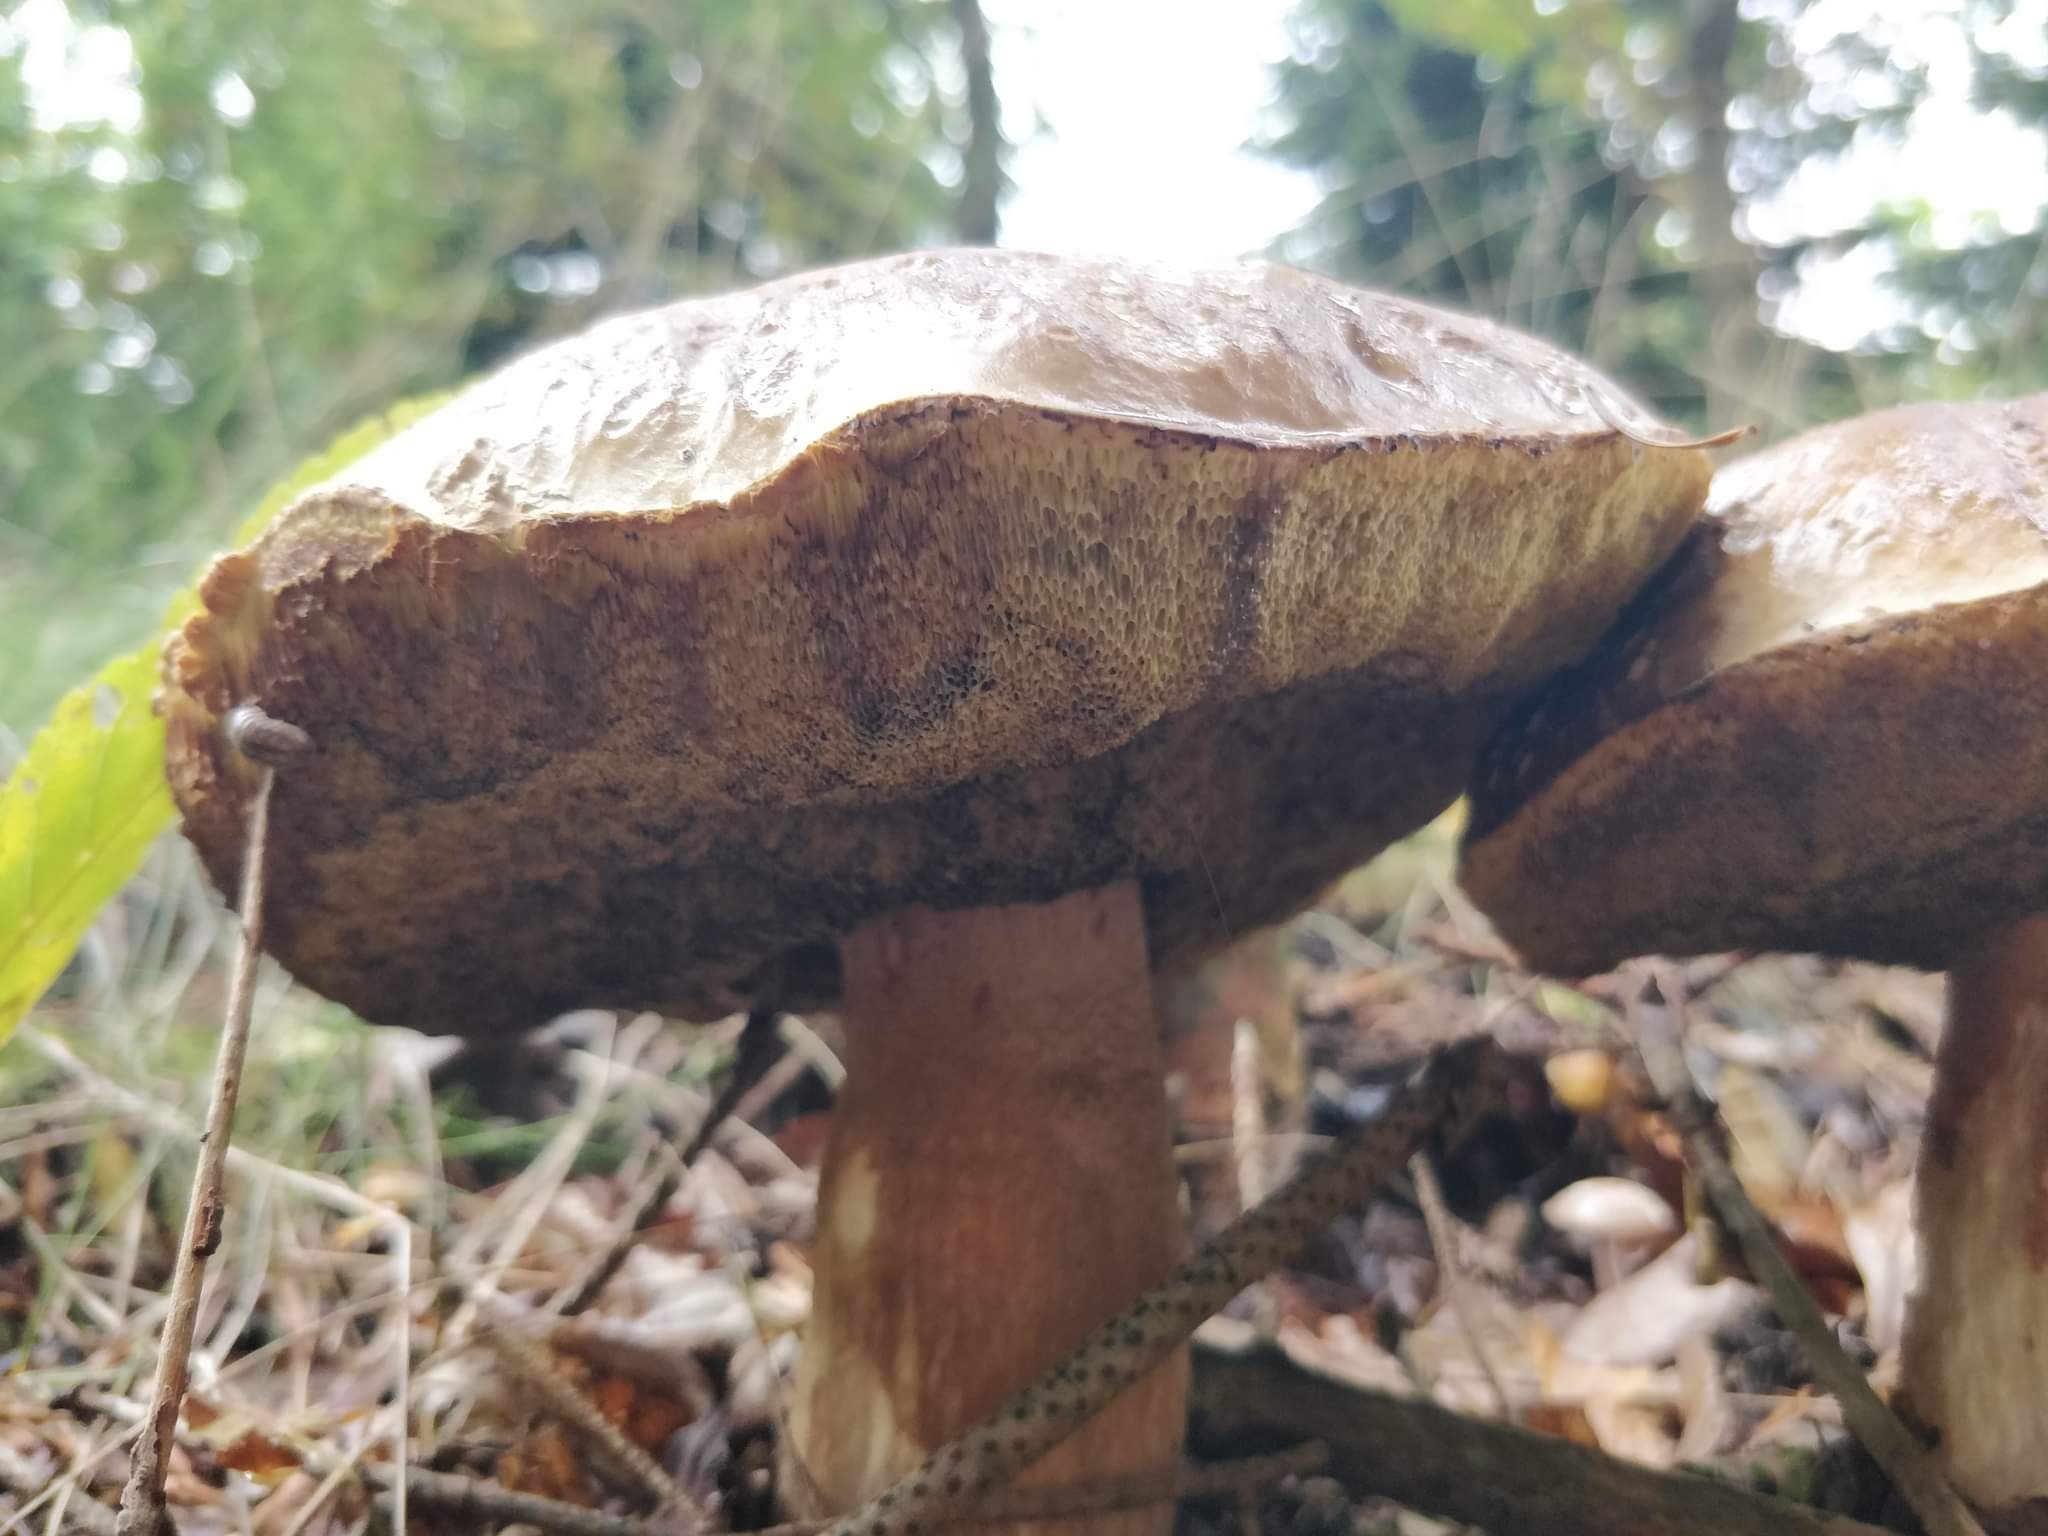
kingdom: Fungi
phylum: Basidiomycota
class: Agaricomycetes
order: Boletales
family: Boletaceae
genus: Boletus
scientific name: Boletus edulis
